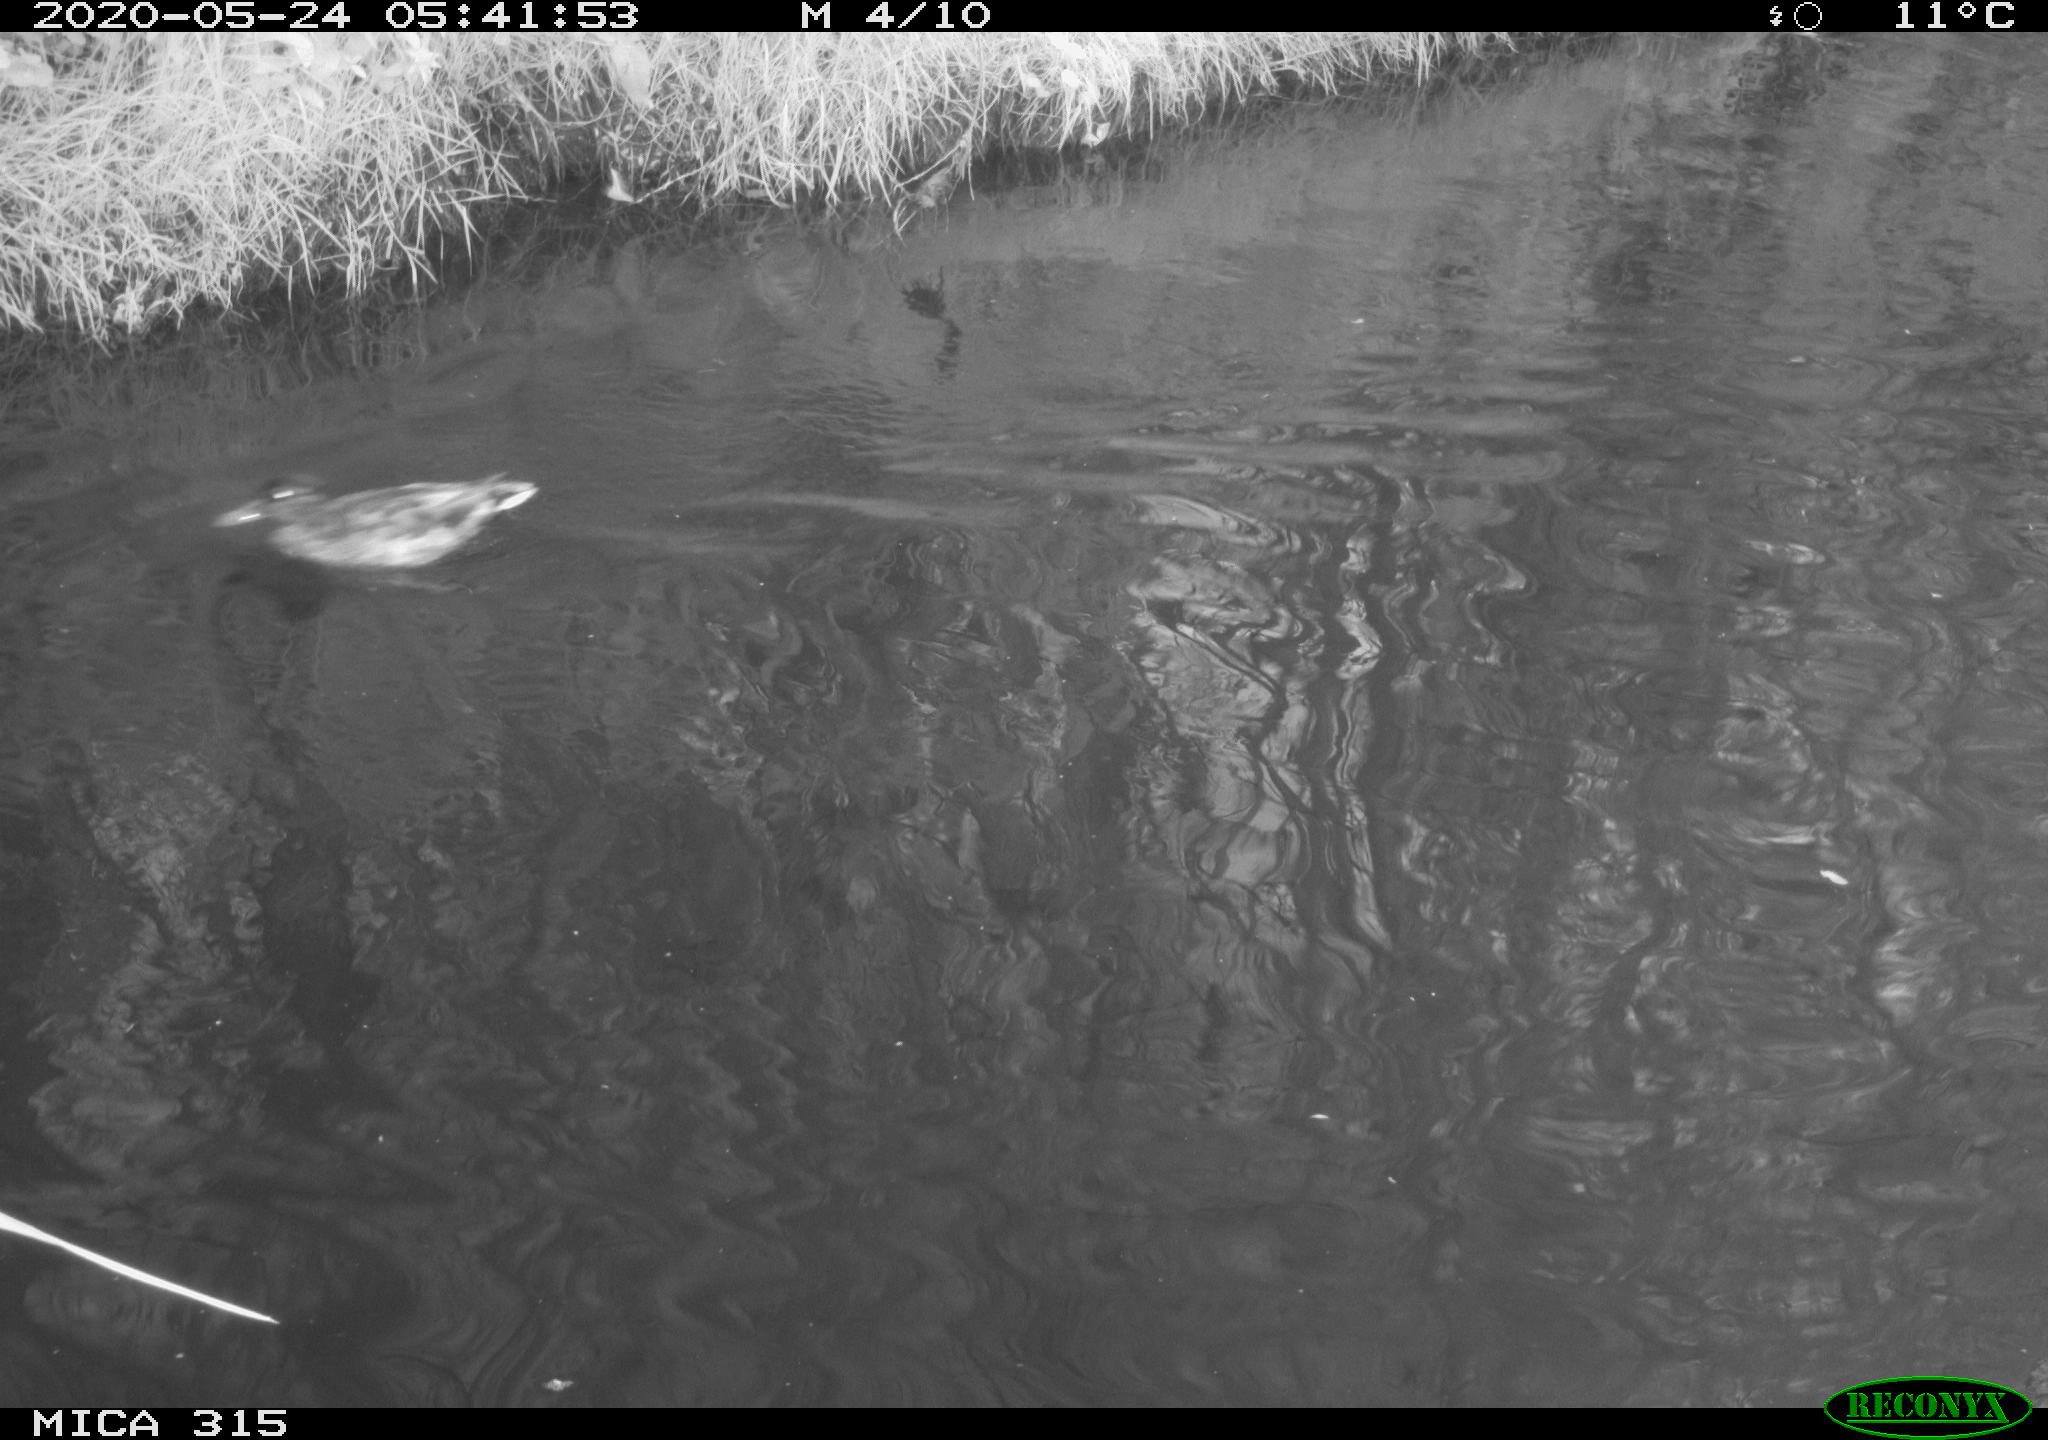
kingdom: Animalia
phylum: Chordata
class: Aves
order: Anseriformes
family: Anatidae
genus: Anas
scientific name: Anas platyrhynchos
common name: Mallard
